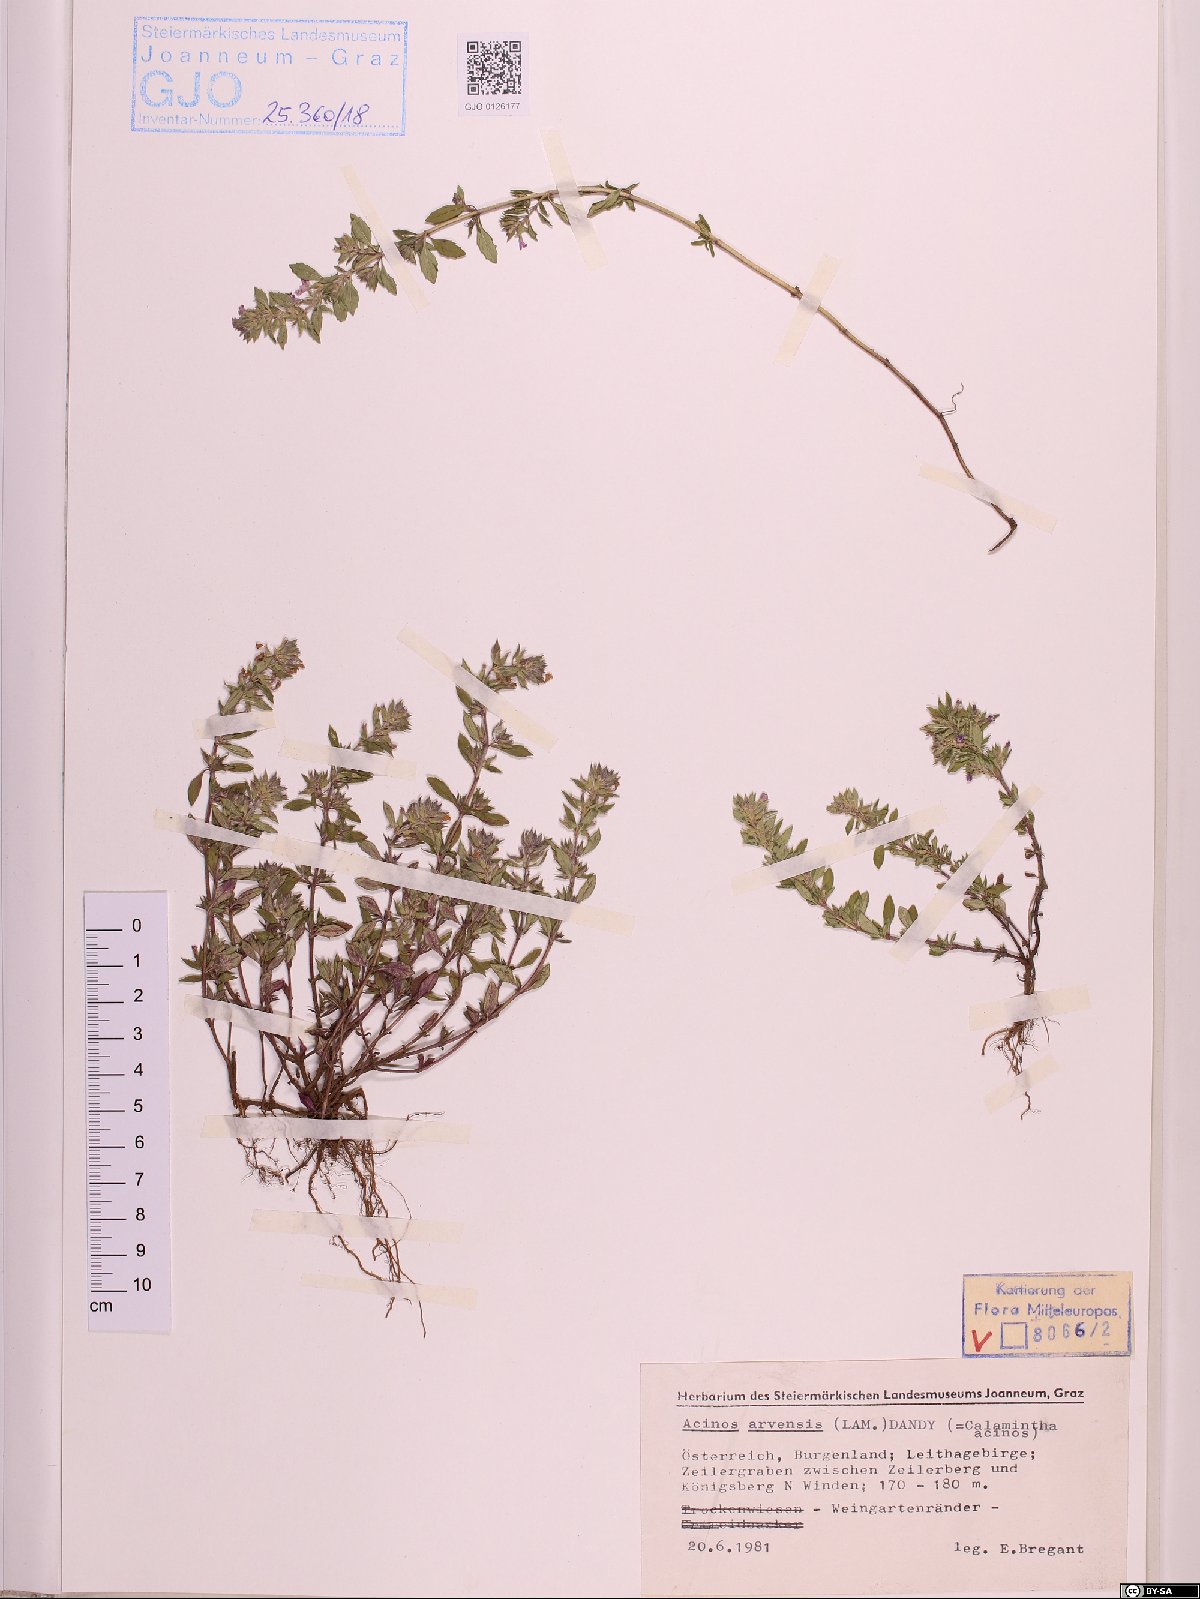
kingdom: Plantae
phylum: Tracheophyta
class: Magnoliopsida
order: Lamiales
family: Lamiaceae
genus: Clinopodium
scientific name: Clinopodium acinos
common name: Basil thyme
